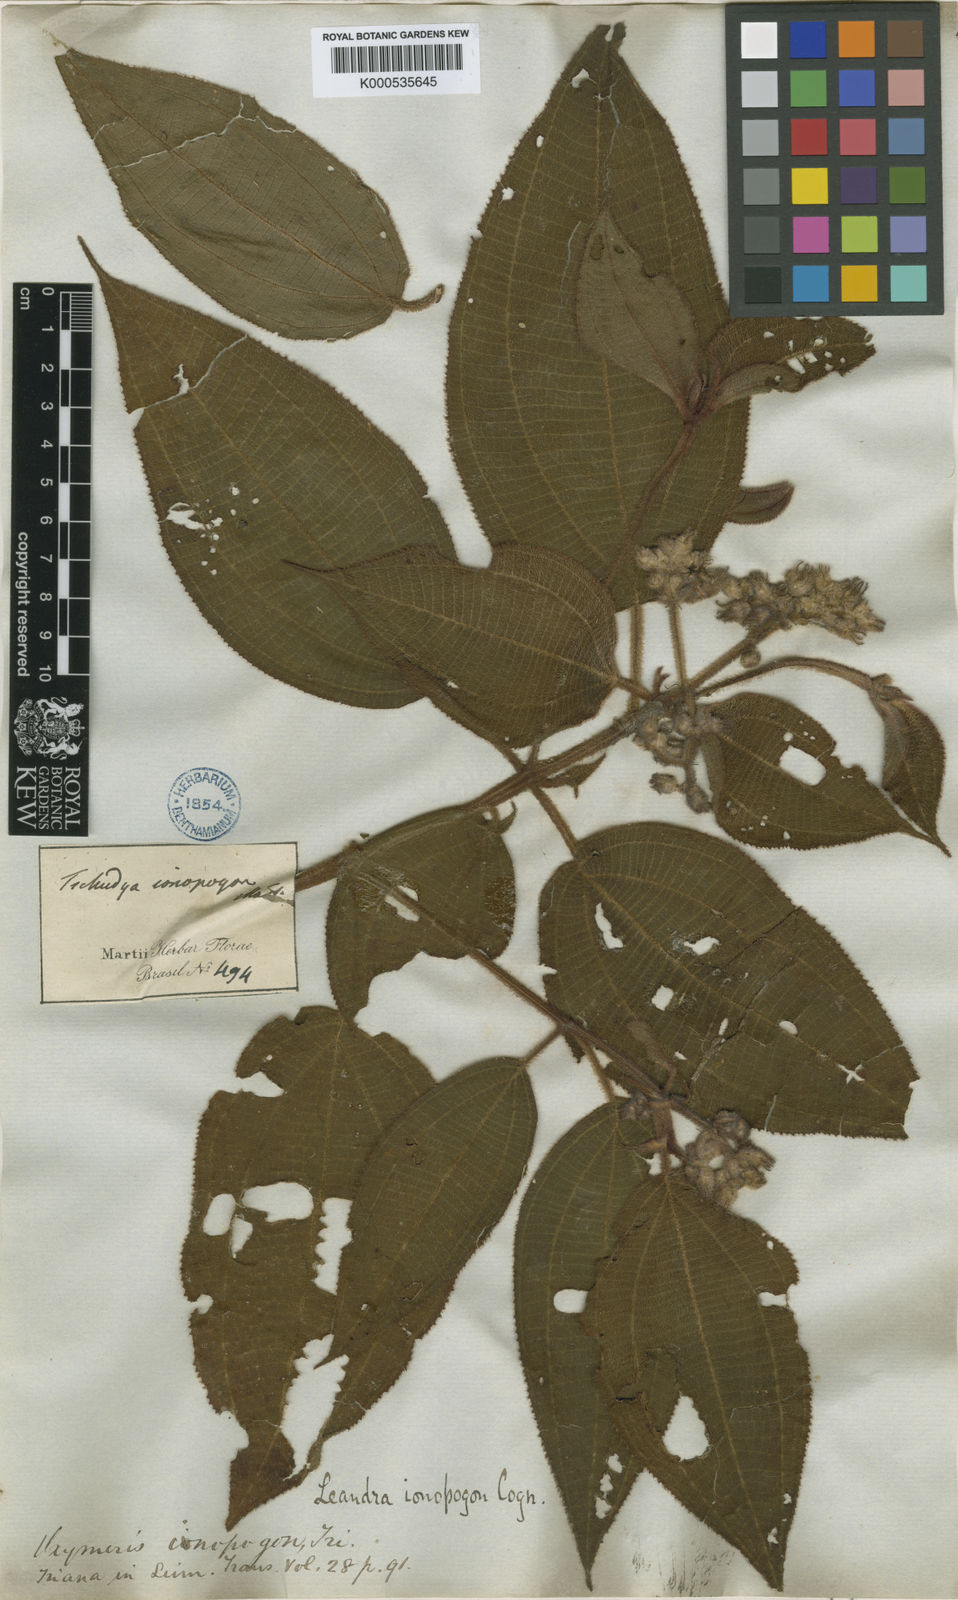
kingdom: Plantae
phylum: Tracheophyta
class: Magnoliopsida
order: Myrtales
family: Melastomataceae
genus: Miconia
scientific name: Miconia ionopogon
